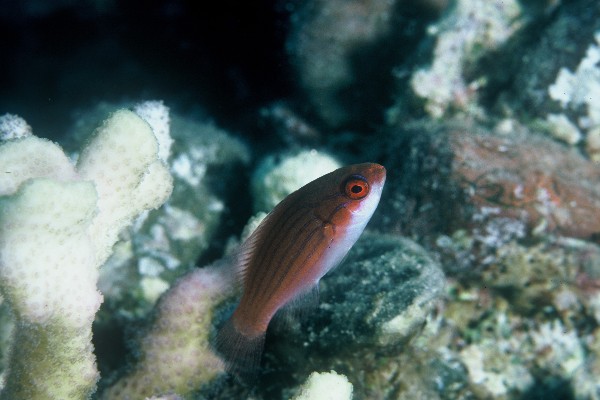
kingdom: Animalia
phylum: Chordata
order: Perciformes
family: Labridae
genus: Paracheilinus
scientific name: Paracheilinus octotaenia
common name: Red sea eightline flasher
